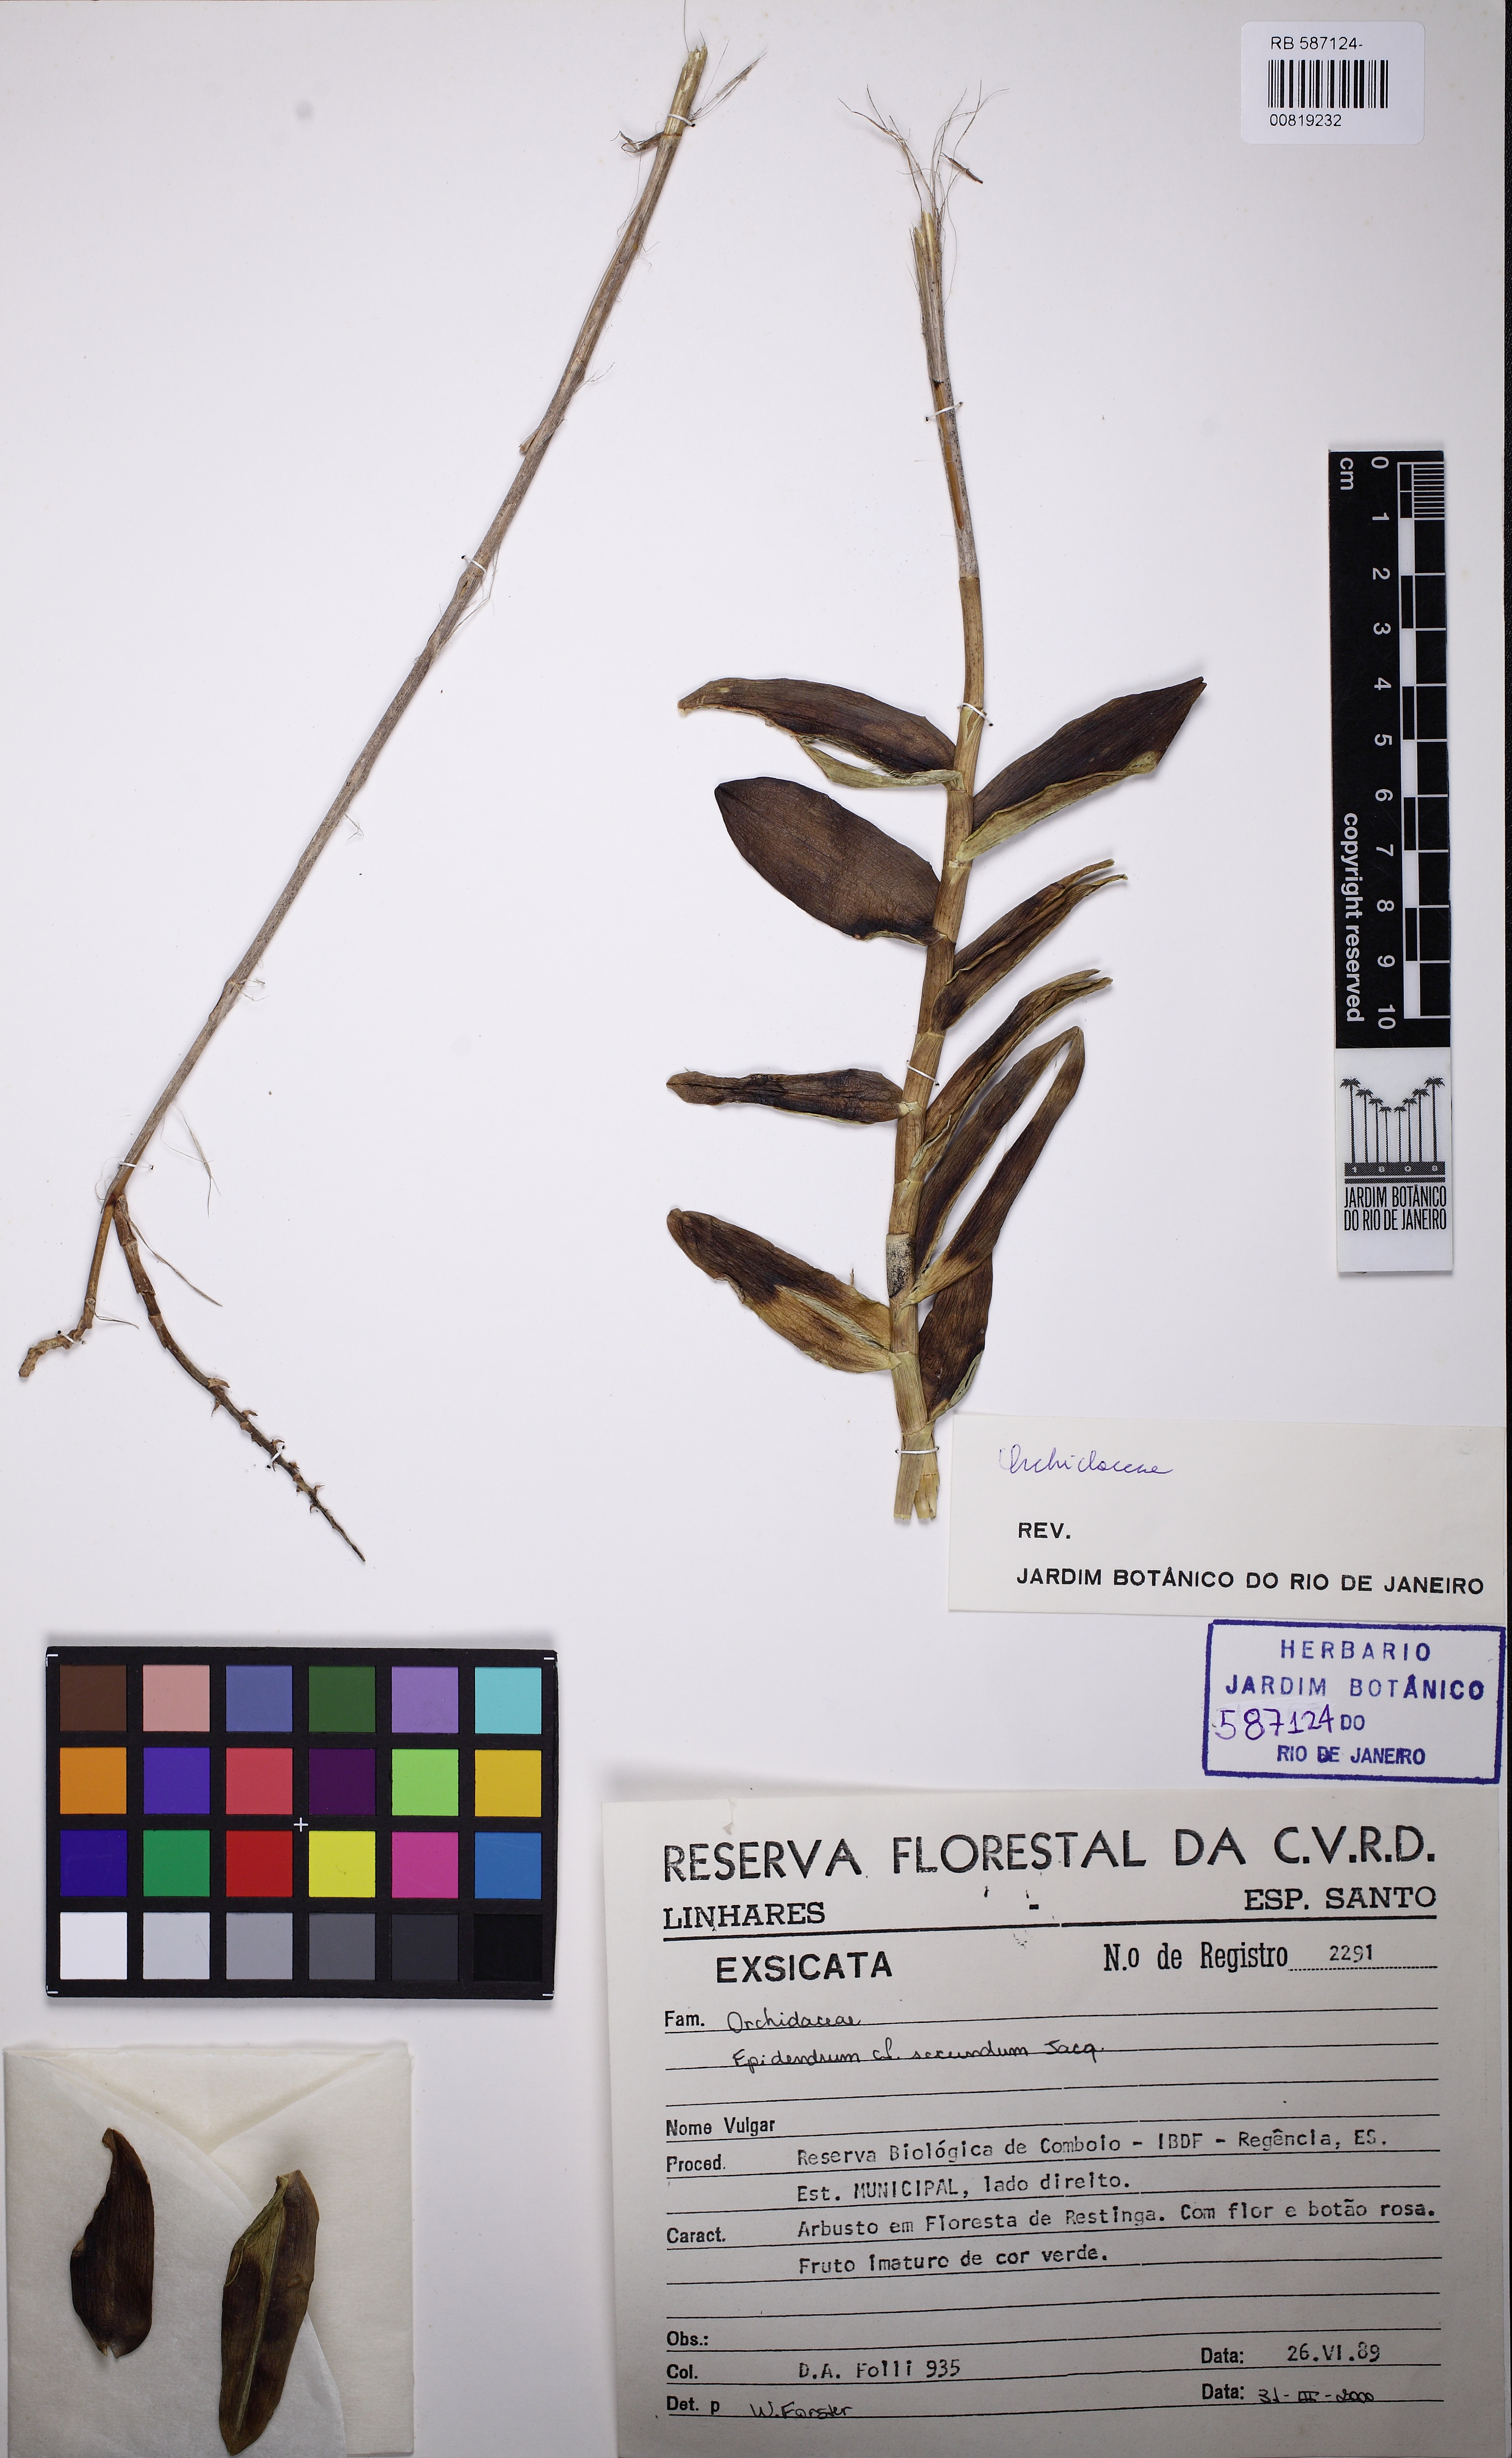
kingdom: Plantae
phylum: Tracheophyta
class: Liliopsida
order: Asparagales
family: Orchidaceae
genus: Epidendrum
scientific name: Epidendrum secundum
